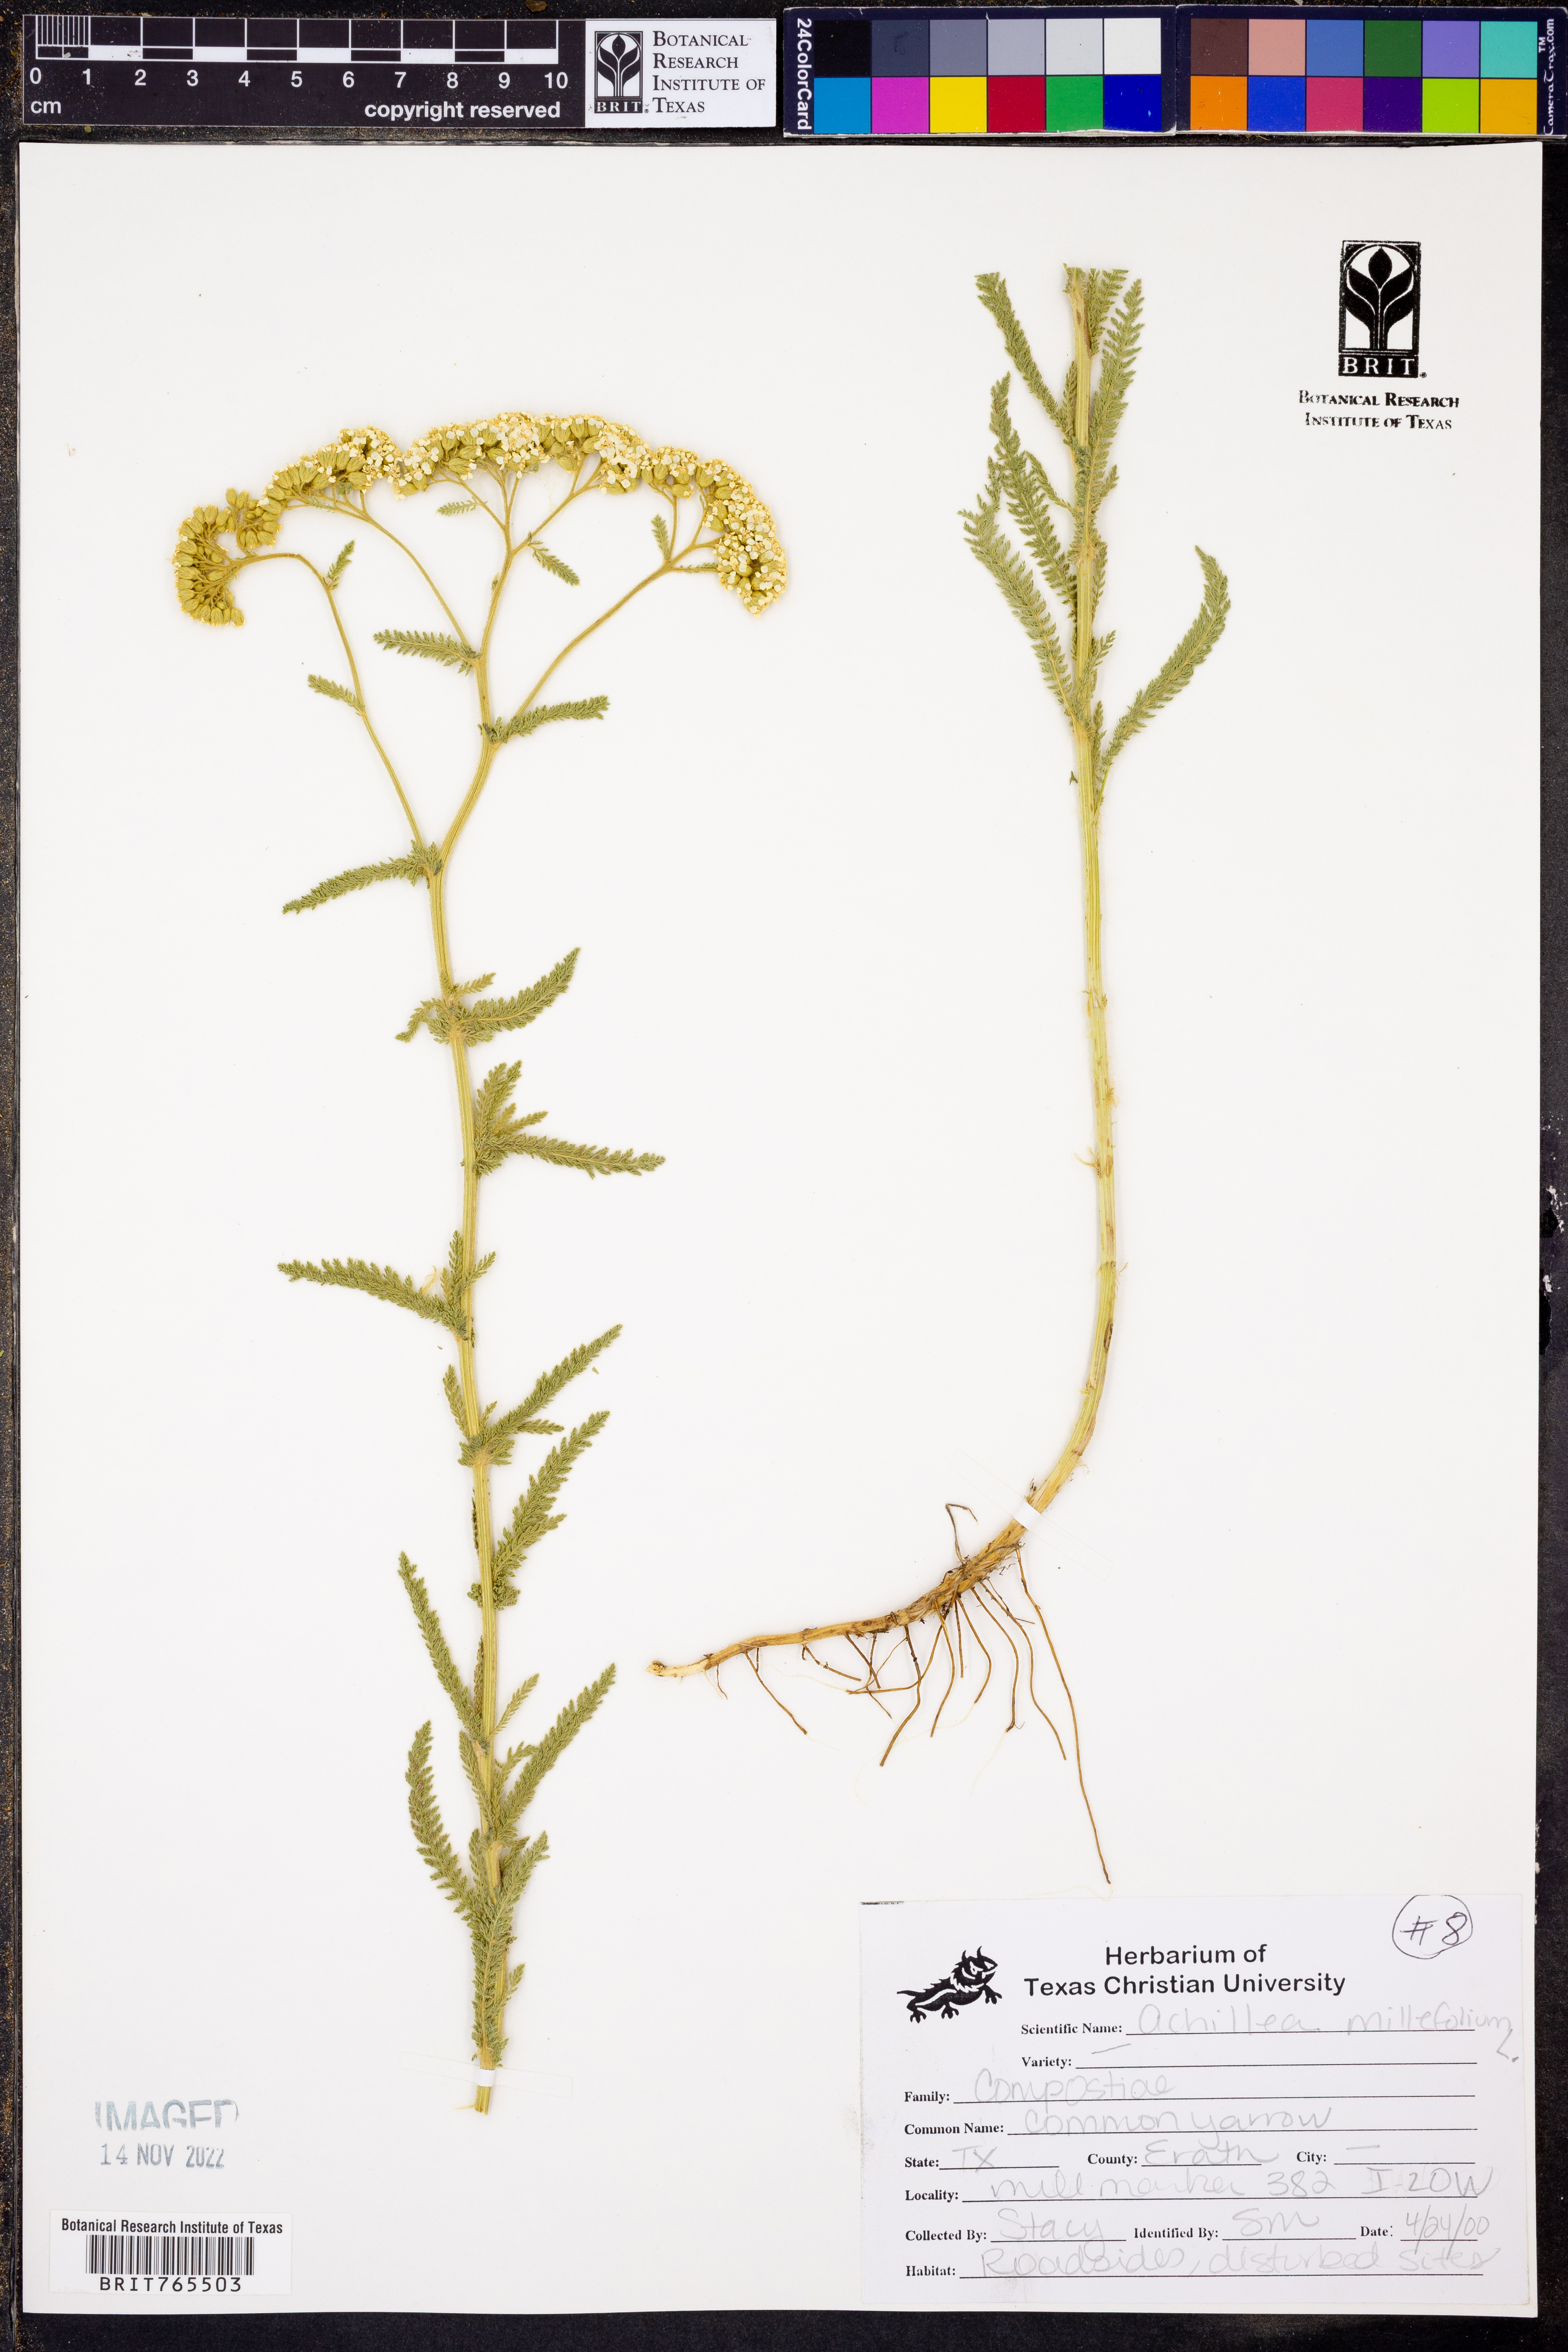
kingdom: Plantae
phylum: Tracheophyta
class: Magnoliopsida
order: Asterales
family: Asteraceae
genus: Achillea
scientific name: Achillea millefolium
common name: Yarrow
